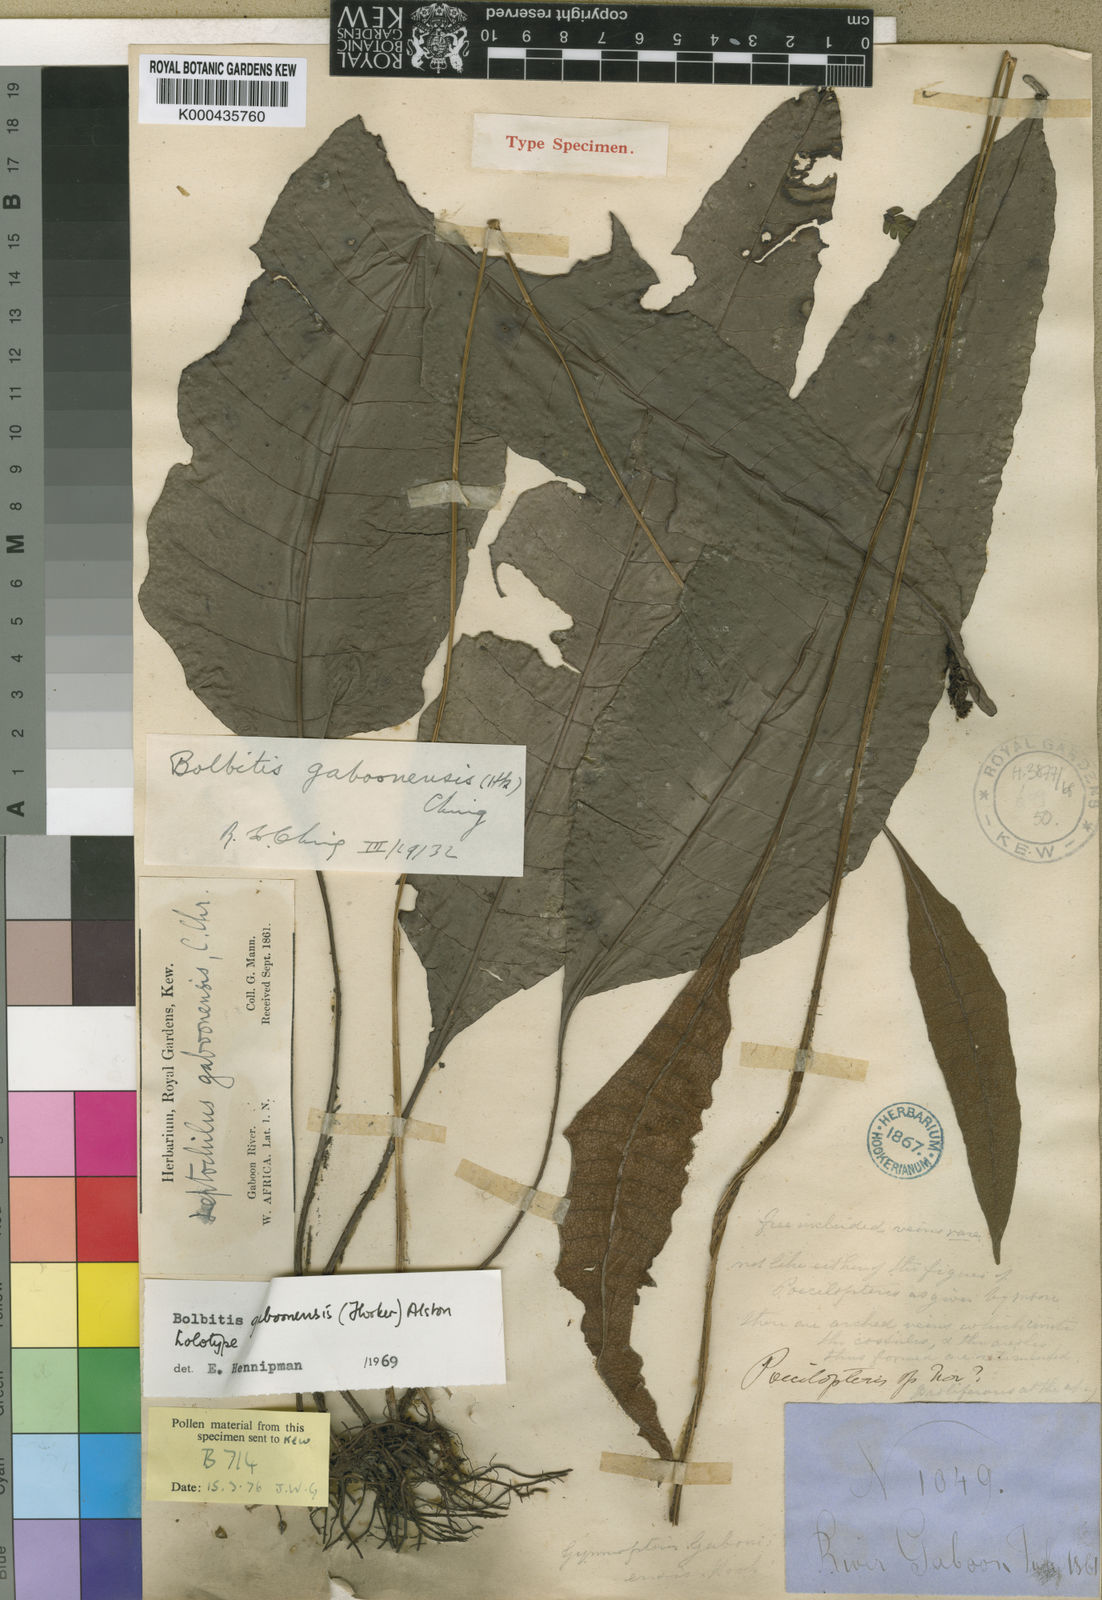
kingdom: Plantae
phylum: Tracheophyta
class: Polypodiopsida
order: Polypodiales
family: Dryopteridaceae
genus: Bolbitis
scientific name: Bolbitis gaboonensis
